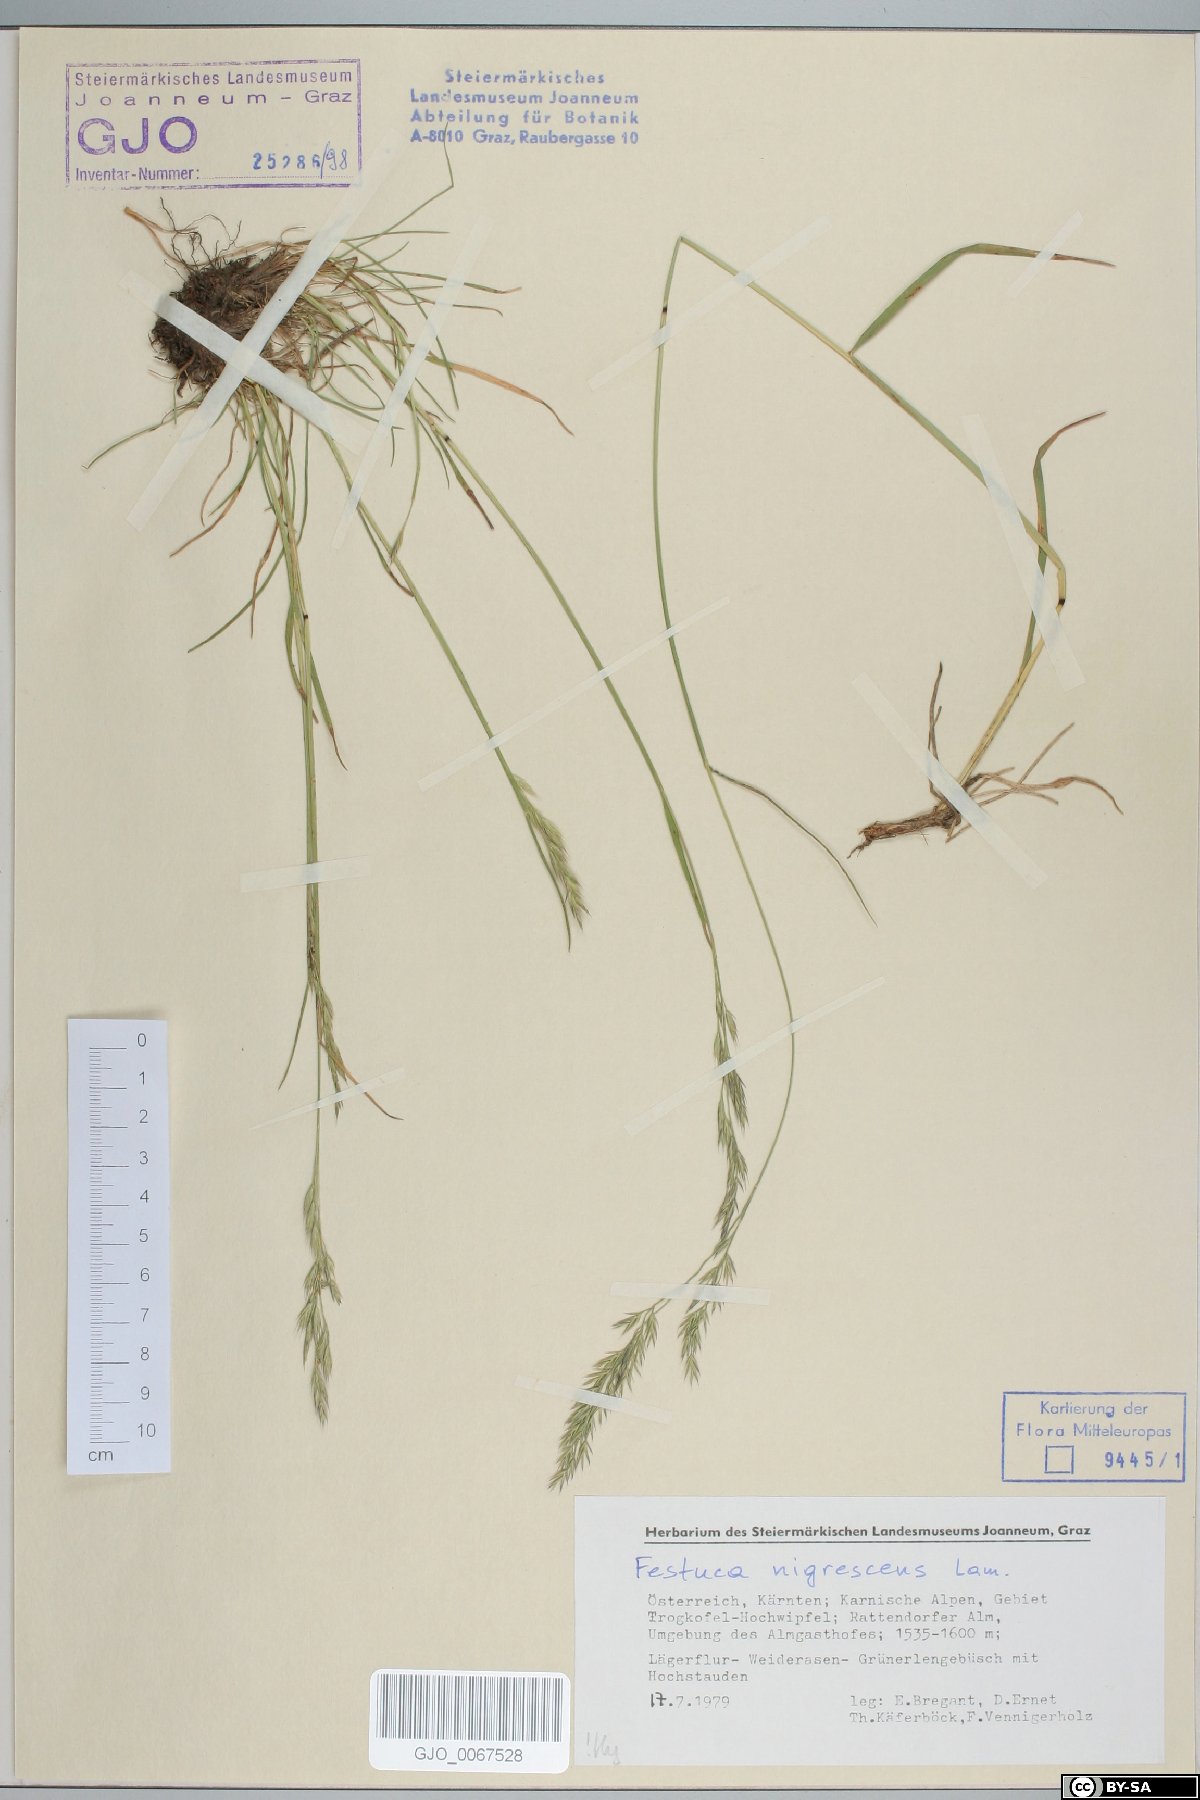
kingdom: Plantae
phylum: Tracheophyta
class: Liliopsida
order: Poales
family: Poaceae
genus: Festuca
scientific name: Festuca nigrescens
